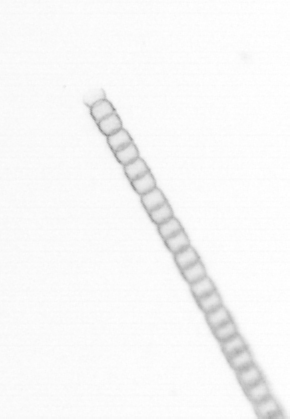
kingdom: Chromista
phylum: Ochrophyta
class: Bacillariophyceae
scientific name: Bacillariophyceae
